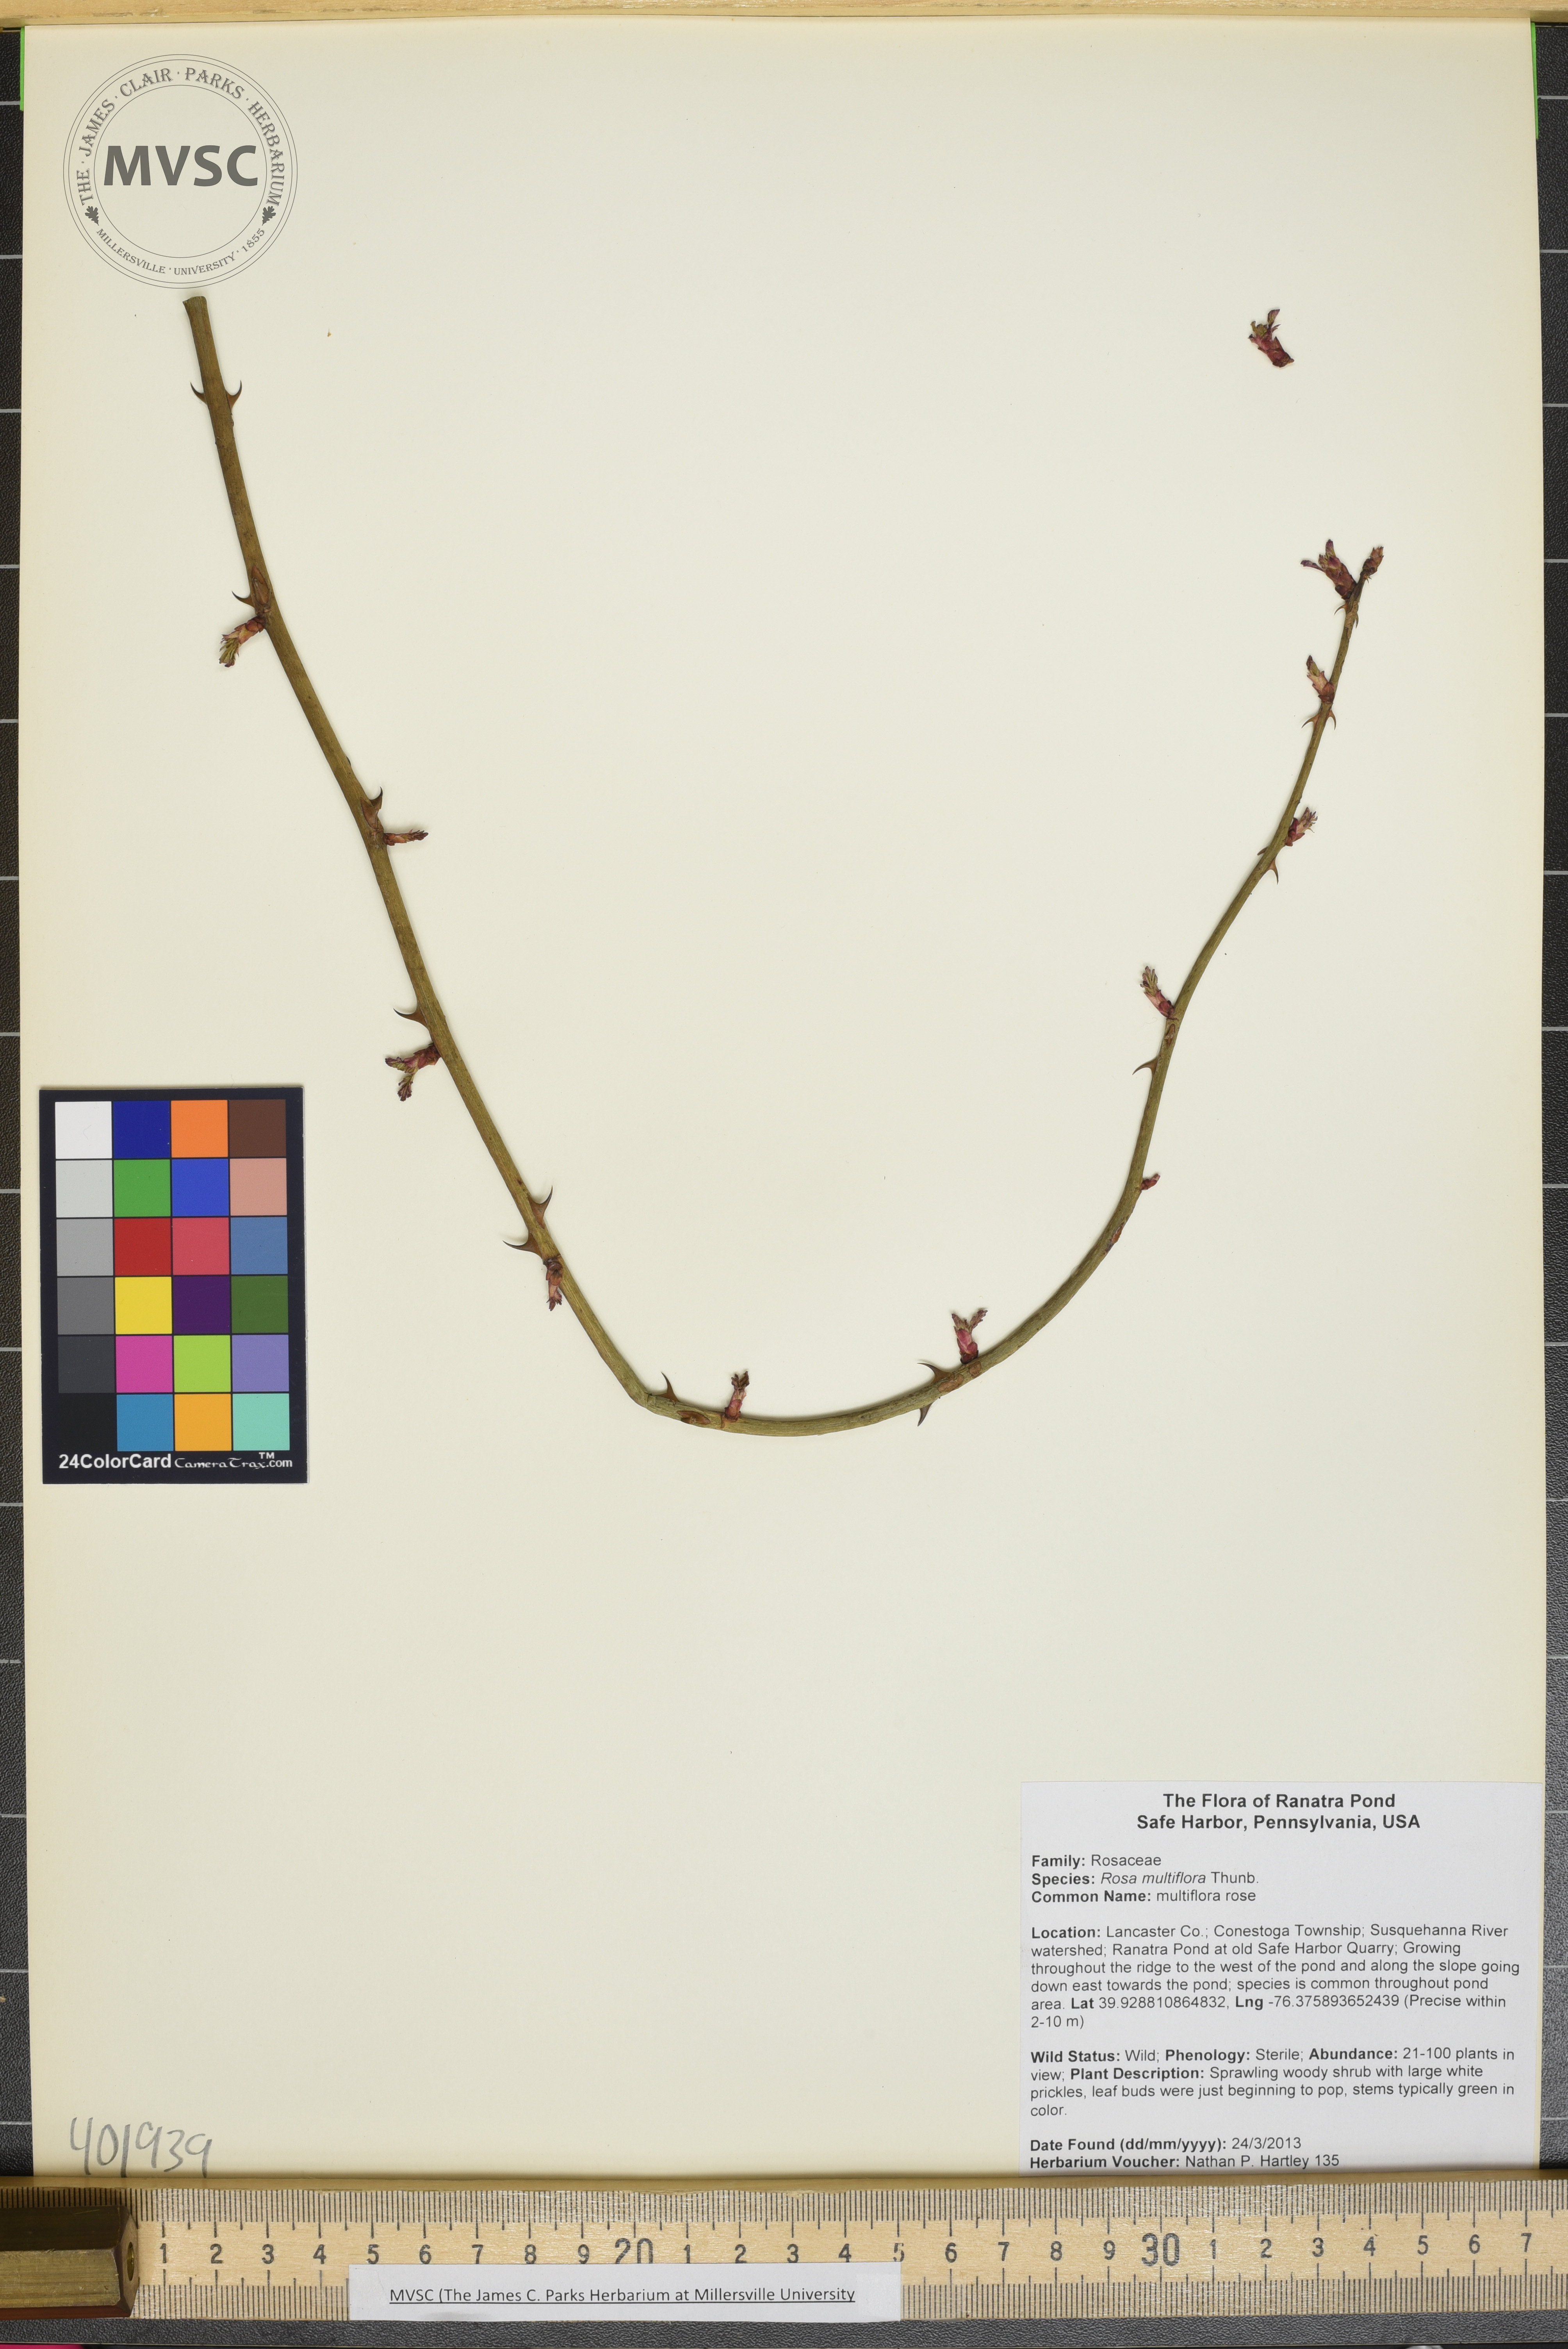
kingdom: Plantae
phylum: Tracheophyta
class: Magnoliopsida
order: Rosales
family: Rosaceae
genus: Rosa
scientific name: Rosa multiflora
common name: Multiflora rose
